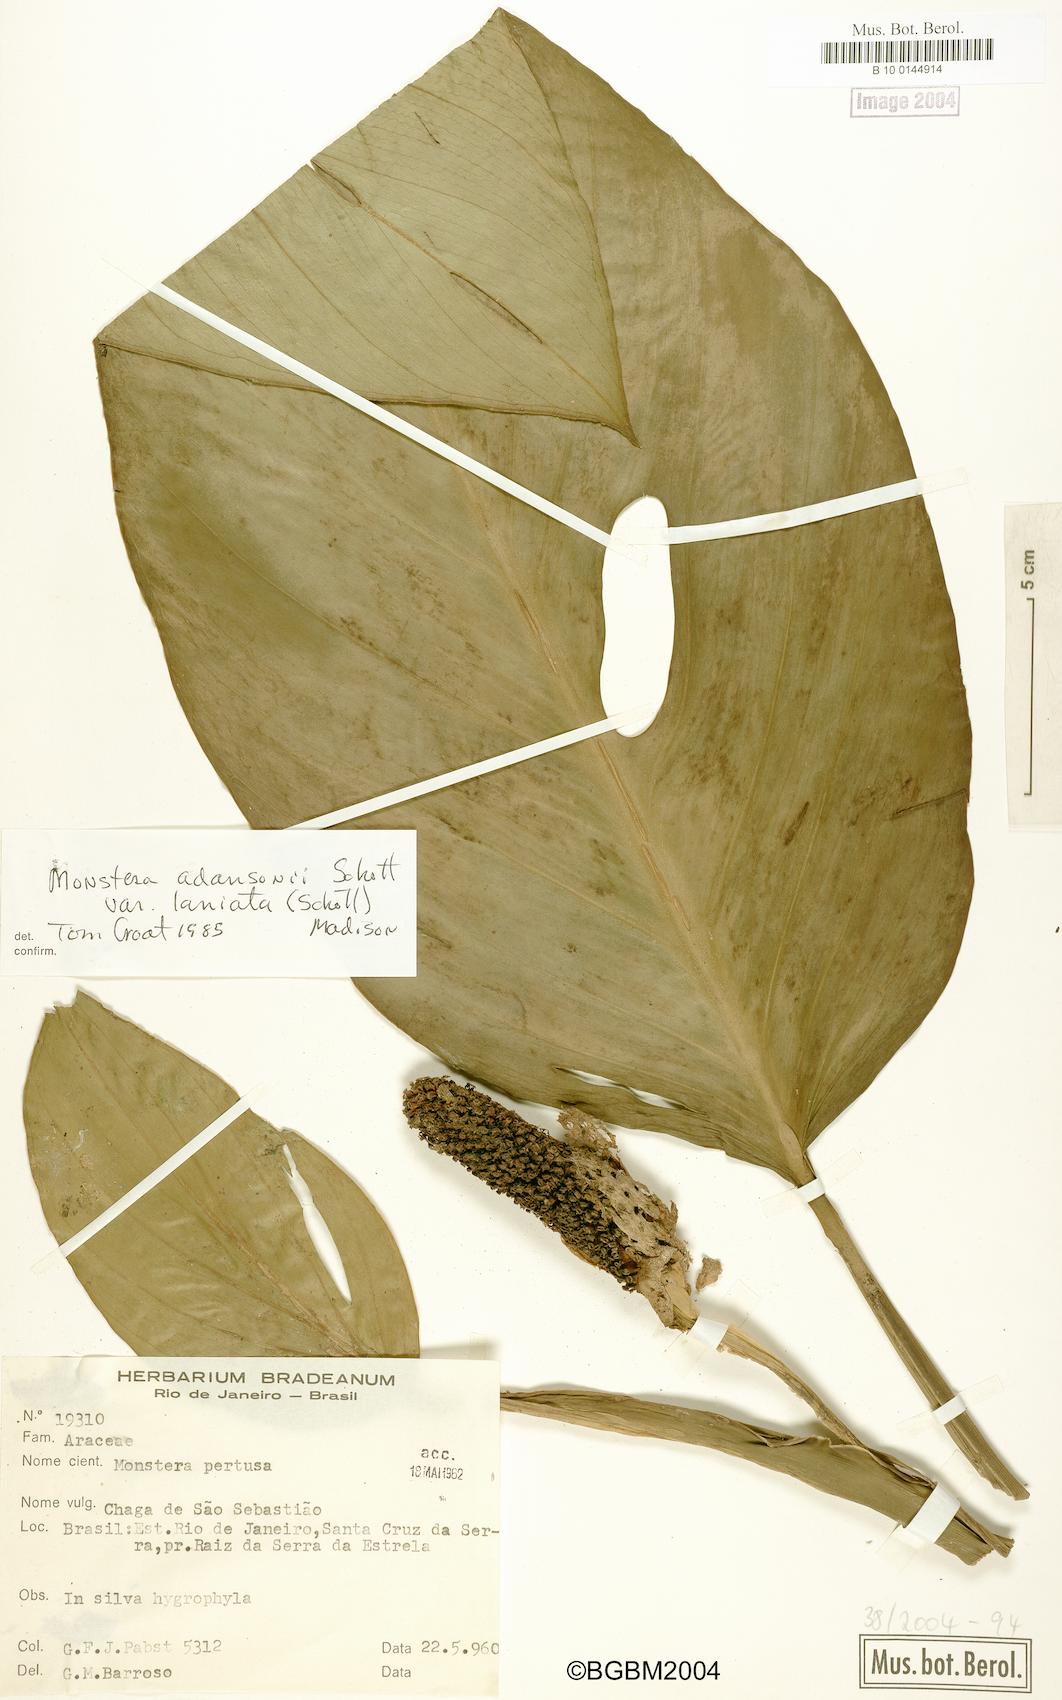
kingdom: Plantae
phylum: Tracheophyta
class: Liliopsida
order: Alismatales
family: Araceae
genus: Monstera
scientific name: Monstera adansonii
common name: Tarovine
